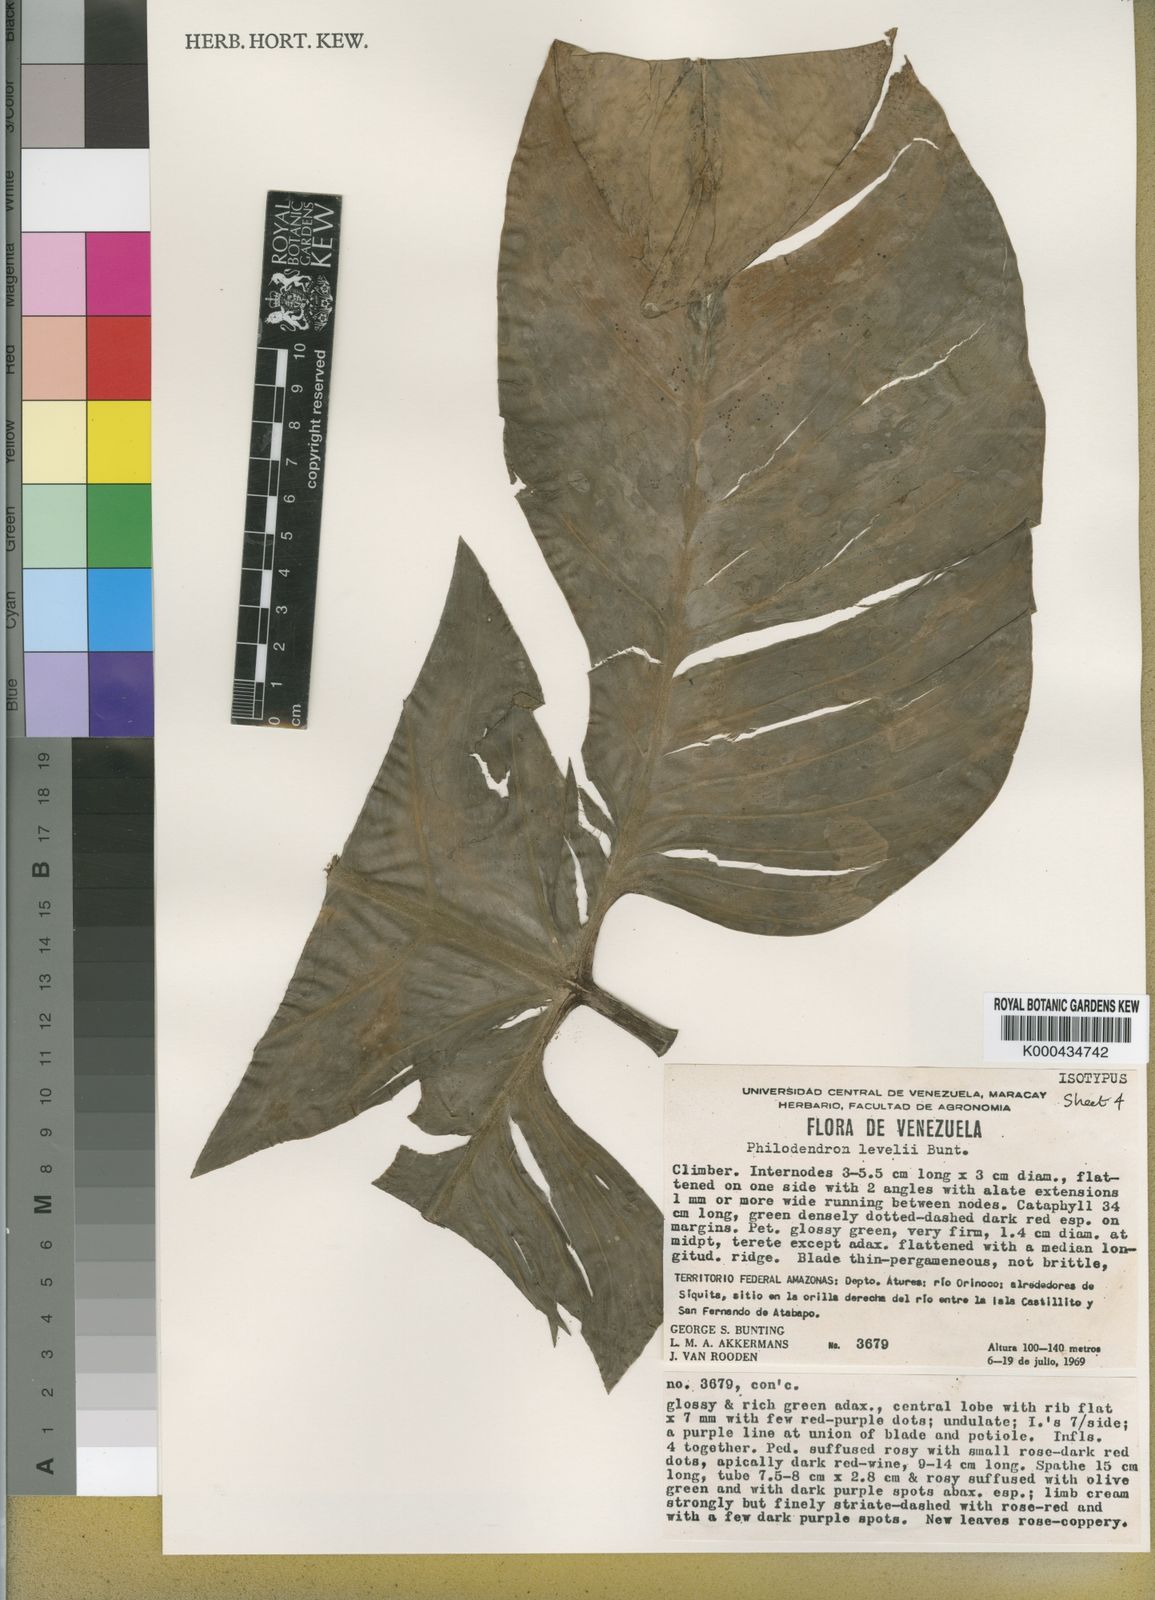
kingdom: Plantae
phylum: Tracheophyta
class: Liliopsida
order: Alismatales
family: Araceae
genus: Philodendron
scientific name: Philodendron barrosoanum
